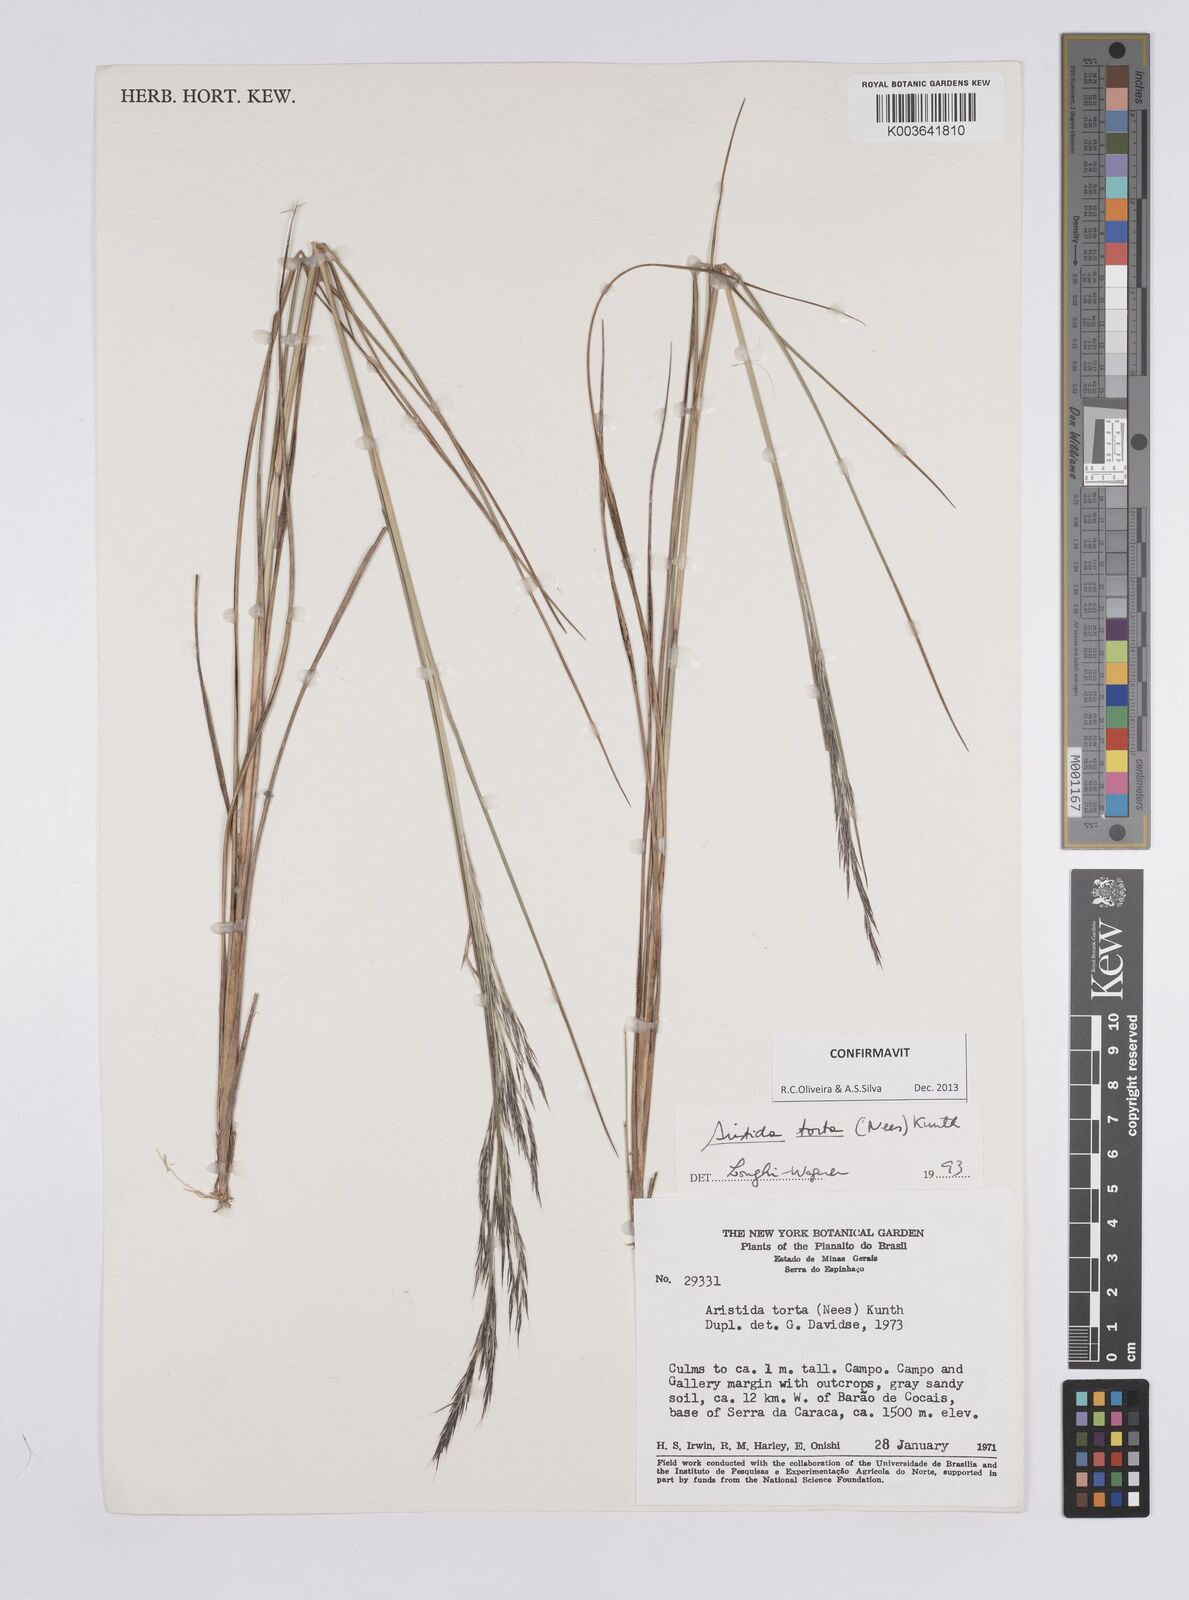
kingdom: Plantae
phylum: Tracheophyta
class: Liliopsida
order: Poales
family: Poaceae
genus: Aristida
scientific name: Aristida torta
